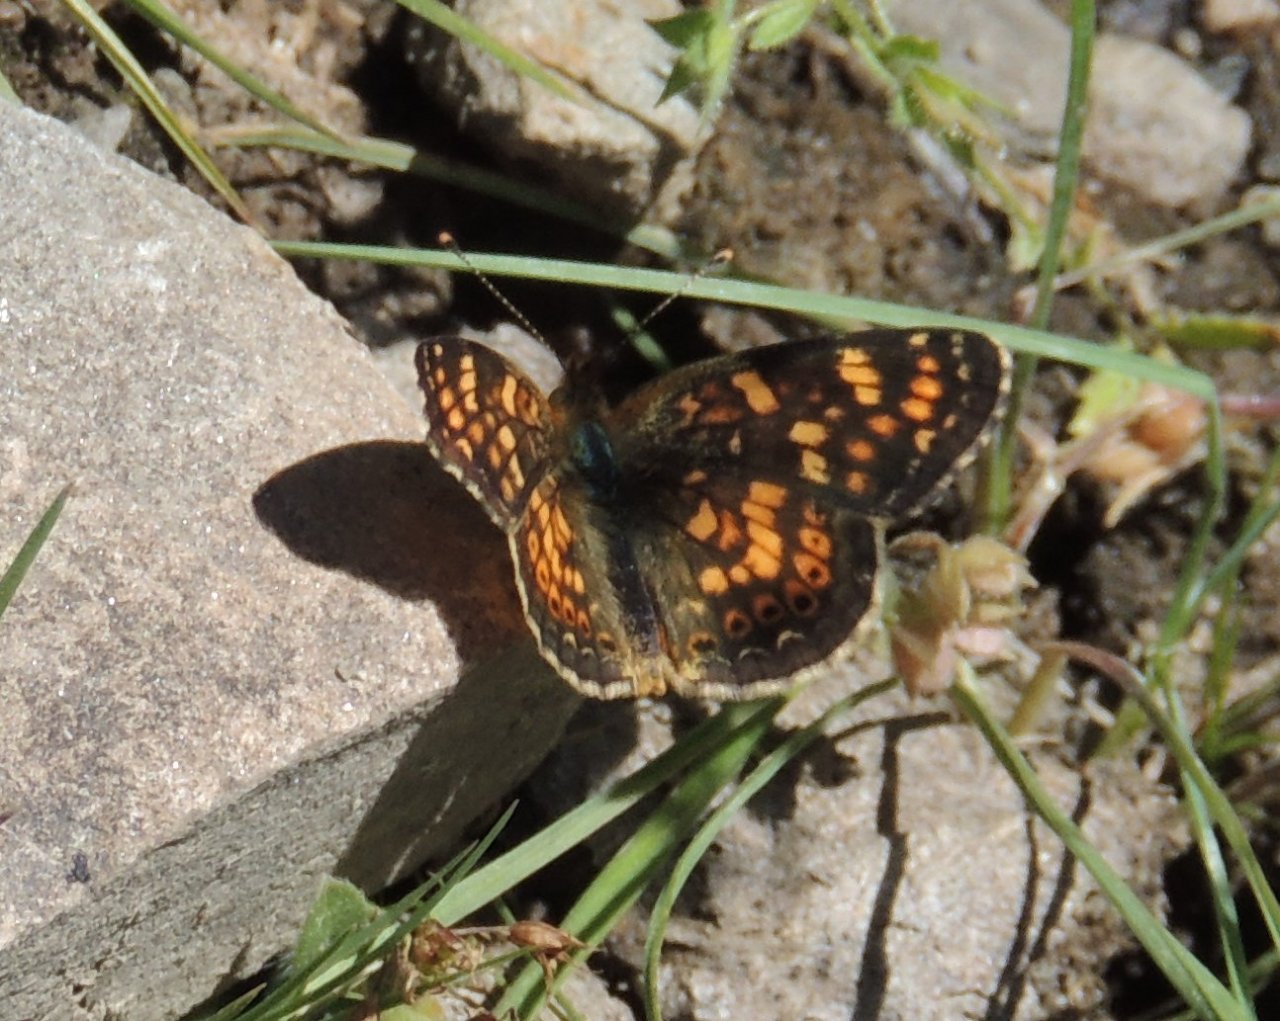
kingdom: Animalia
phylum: Arthropoda
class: Insecta
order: Lepidoptera
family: Nymphalidae
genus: Phyciodes
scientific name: Phyciodes tharos
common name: Field Crescent
